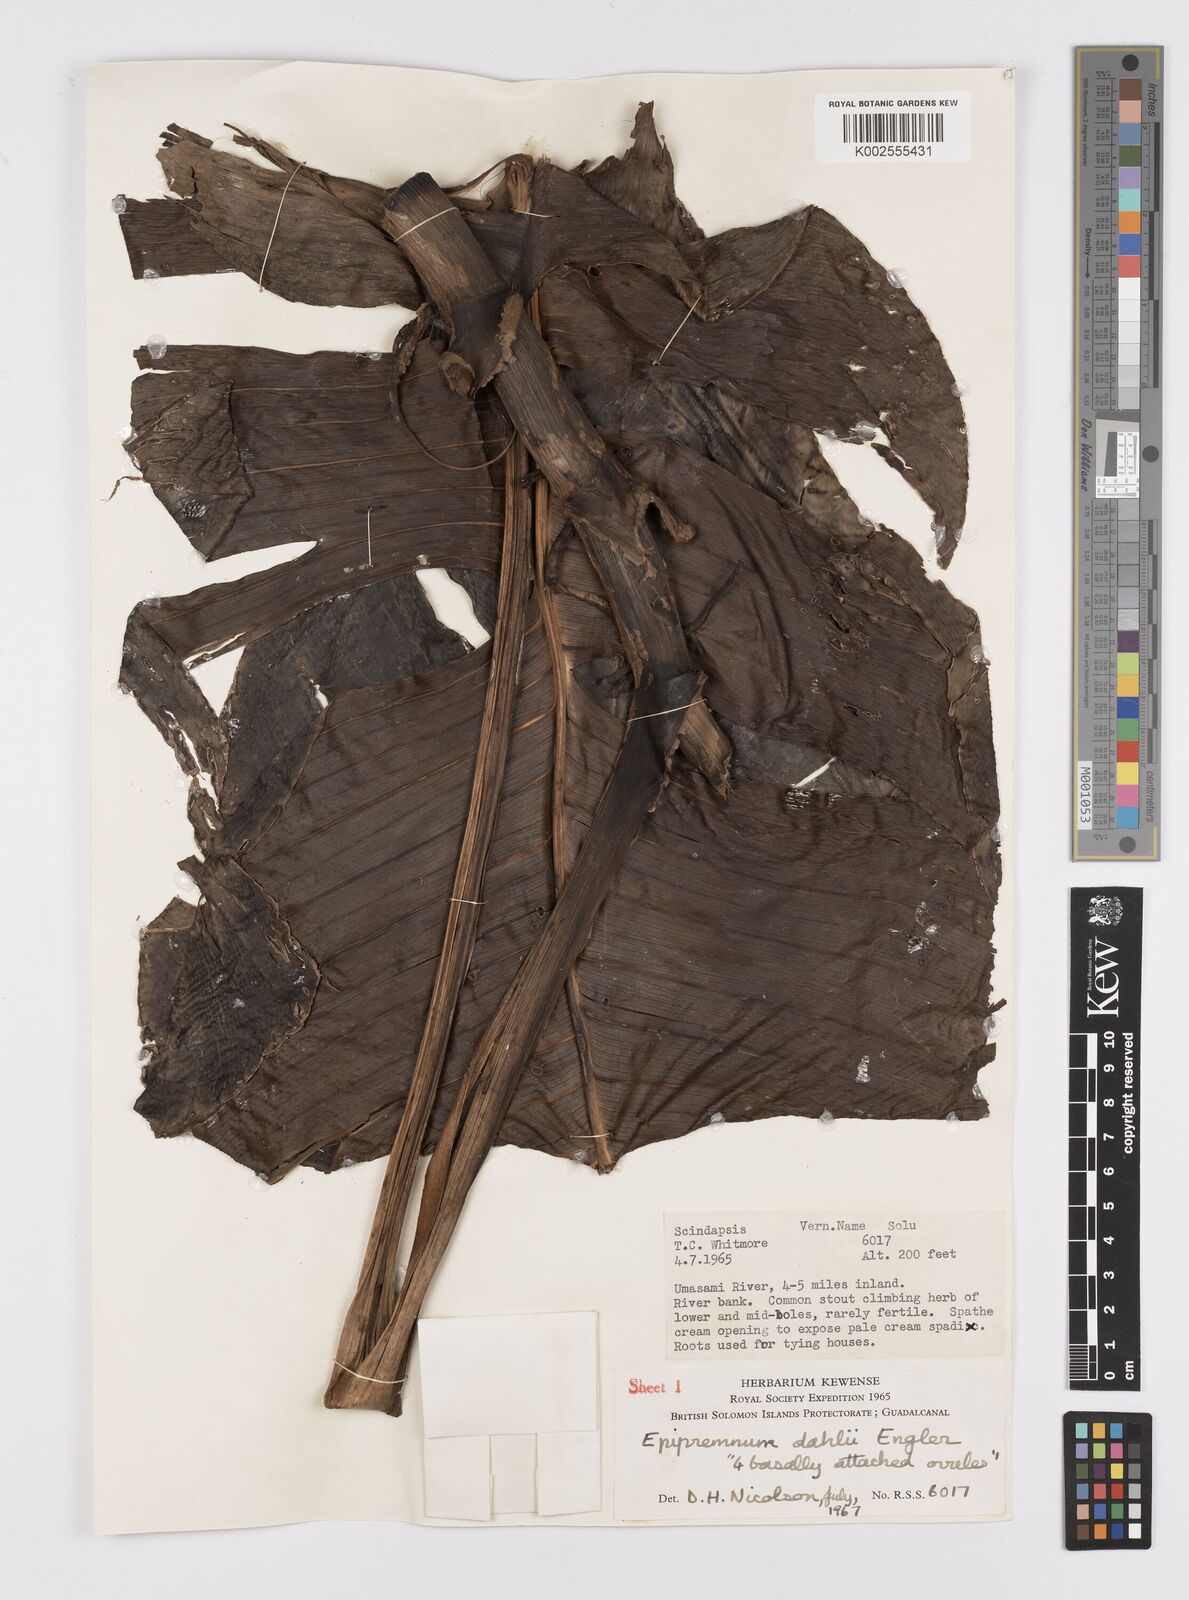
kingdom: Plantae
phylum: Tracheophyta
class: Liliopsida
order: Alismatales
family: Araceae
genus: Epipremnum
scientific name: Epipremnum dahlii
